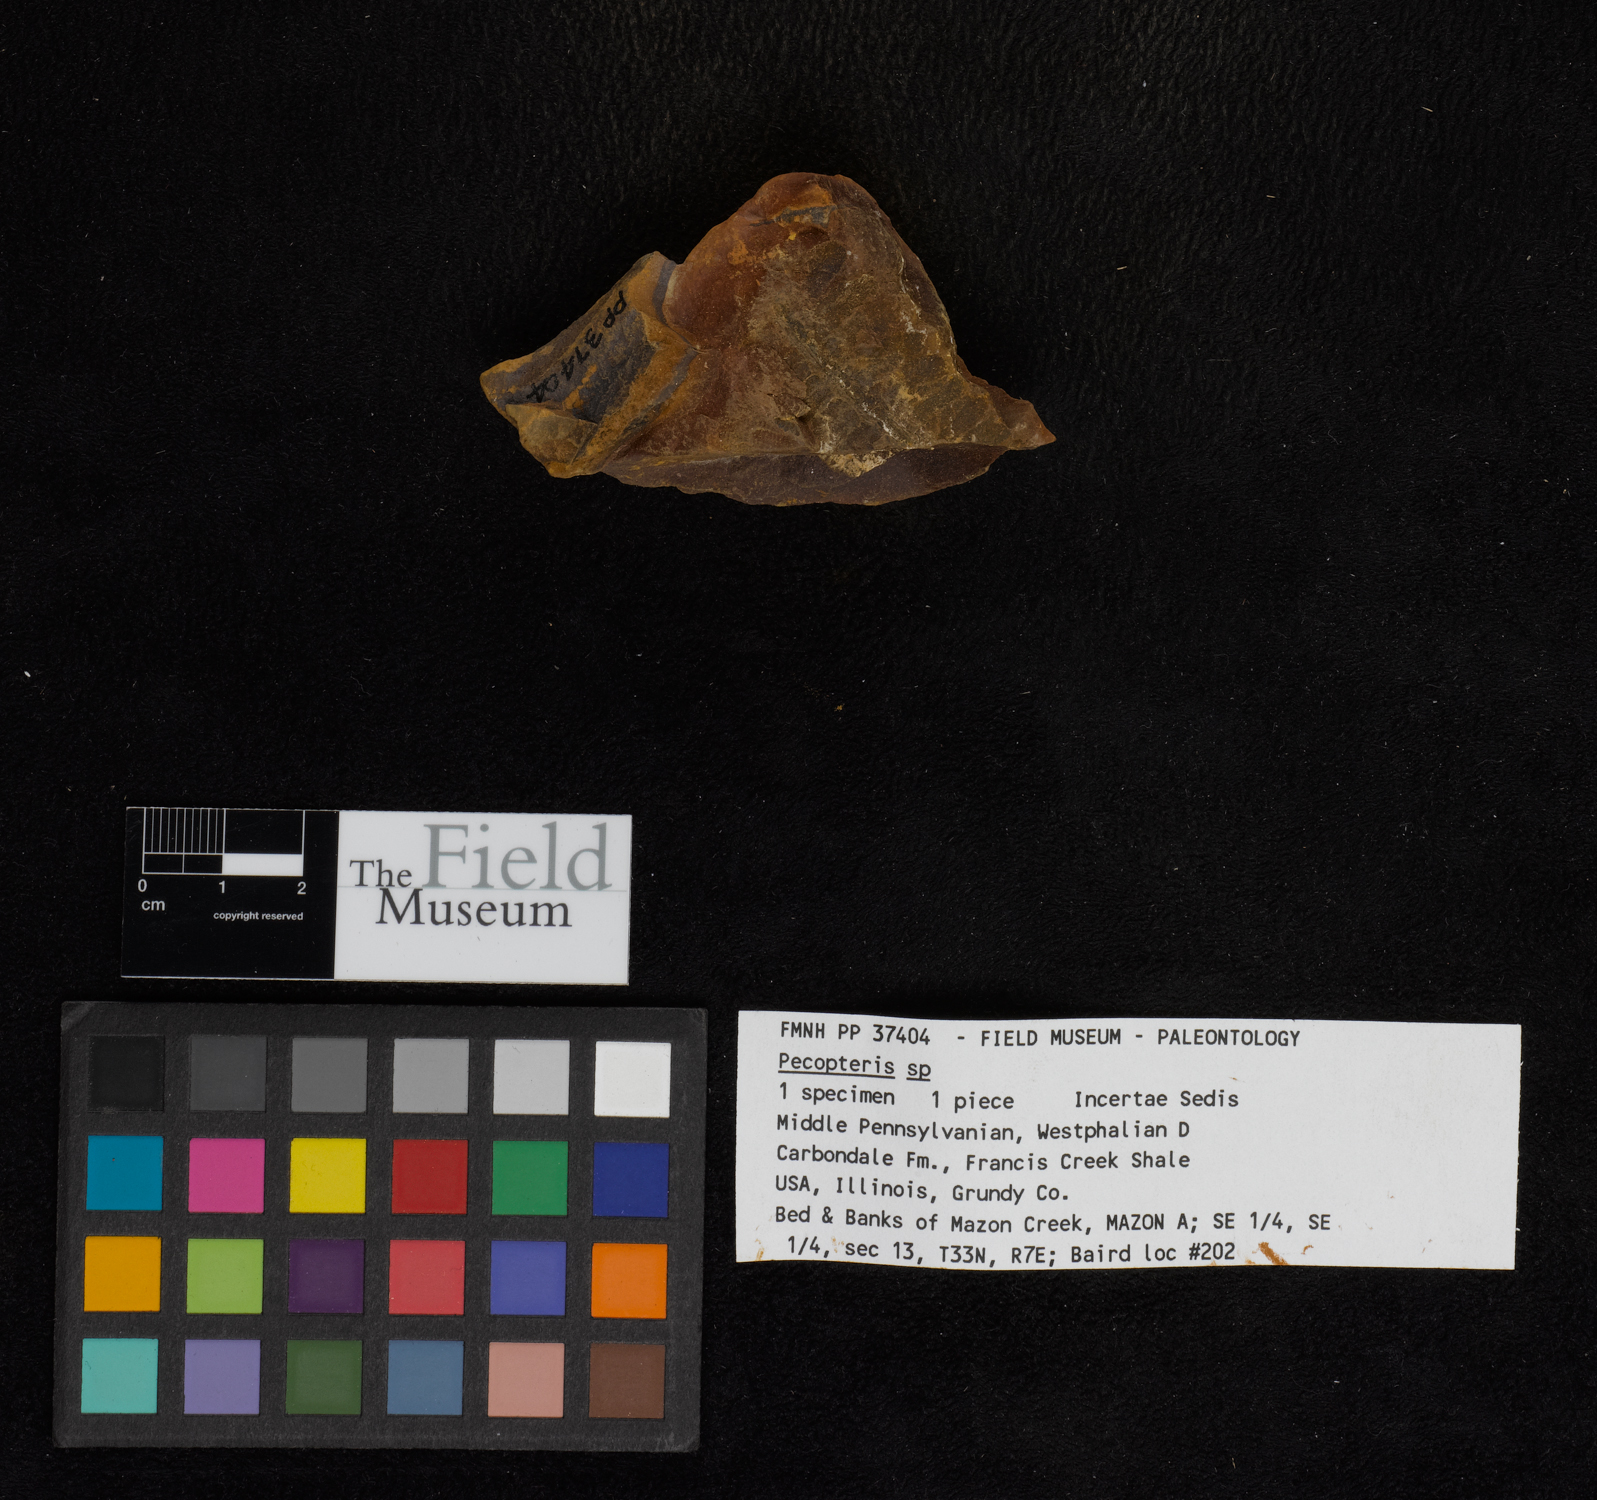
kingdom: Plantae
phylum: Tracheophyta
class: Polypodiopsida
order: Marattiales
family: Asterothecaceae
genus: Pecopteris
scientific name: Pecopteris
